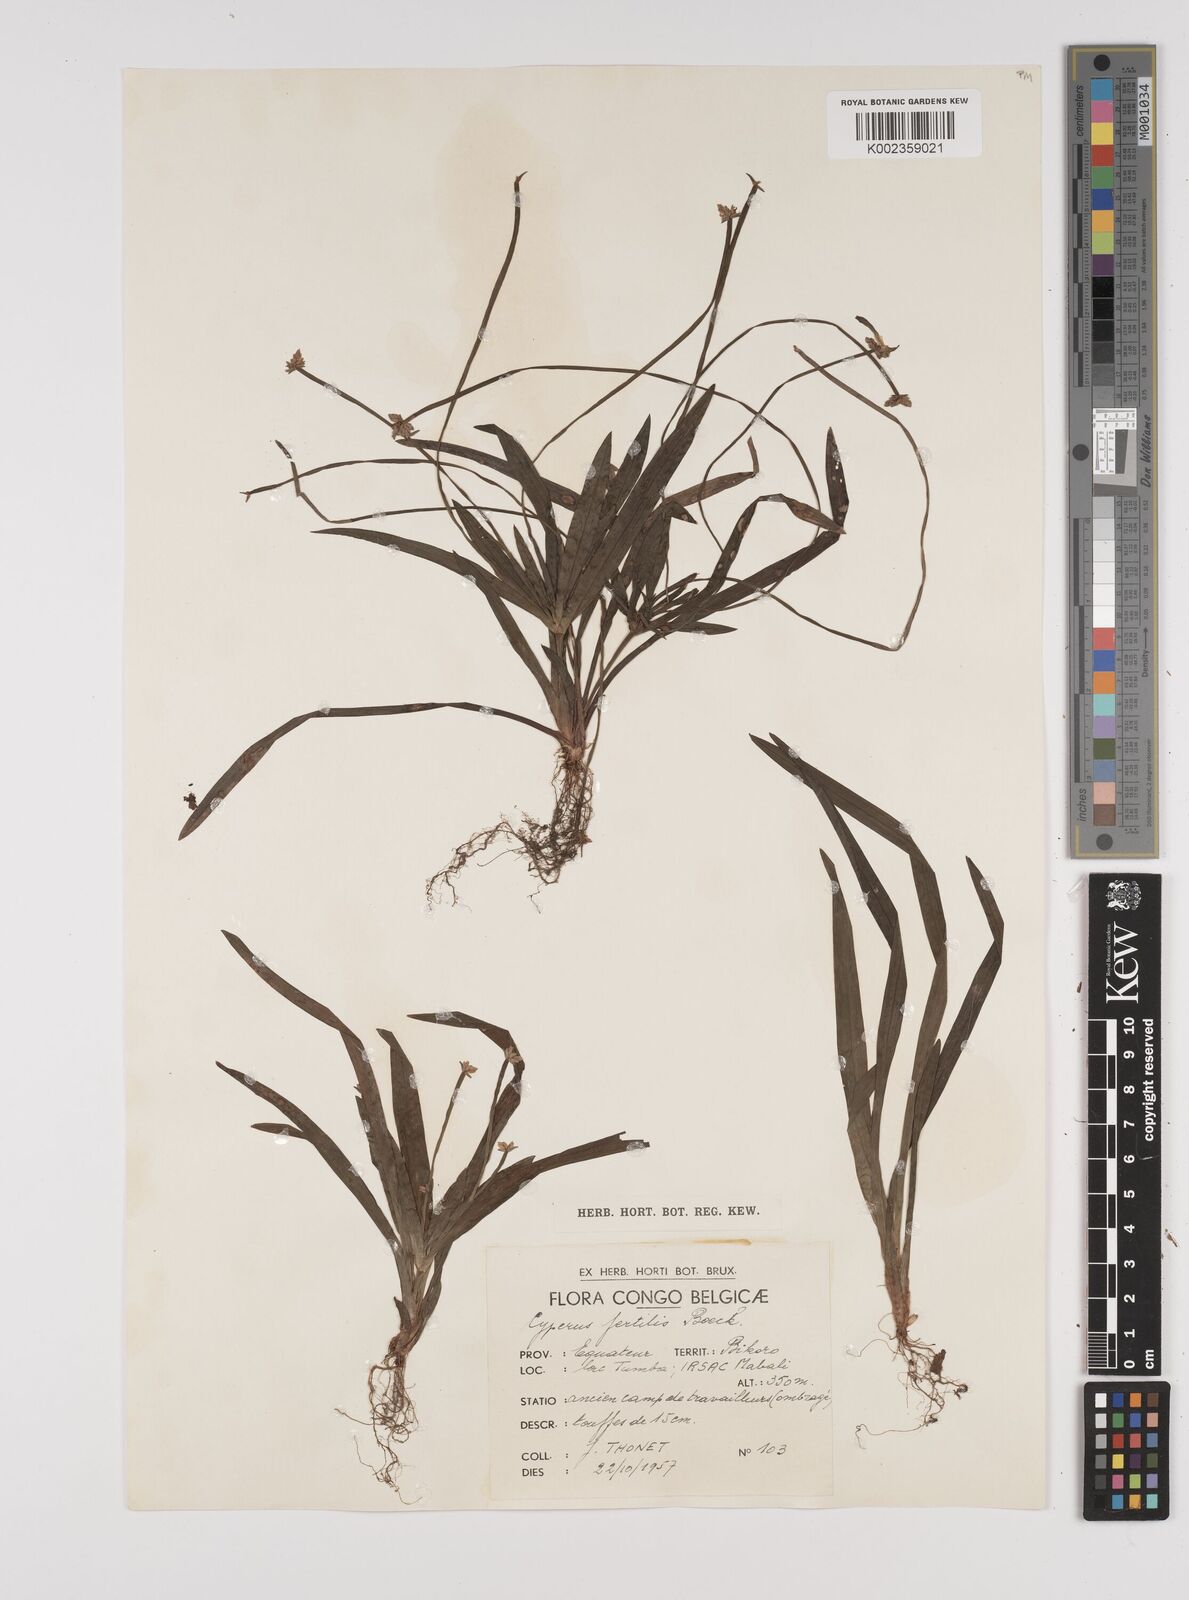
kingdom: Plantae
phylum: Tracheophyta
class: Liliopsida
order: Poales
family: Cyperaceae
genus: Cyperus
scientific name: Cyperus fertilis
